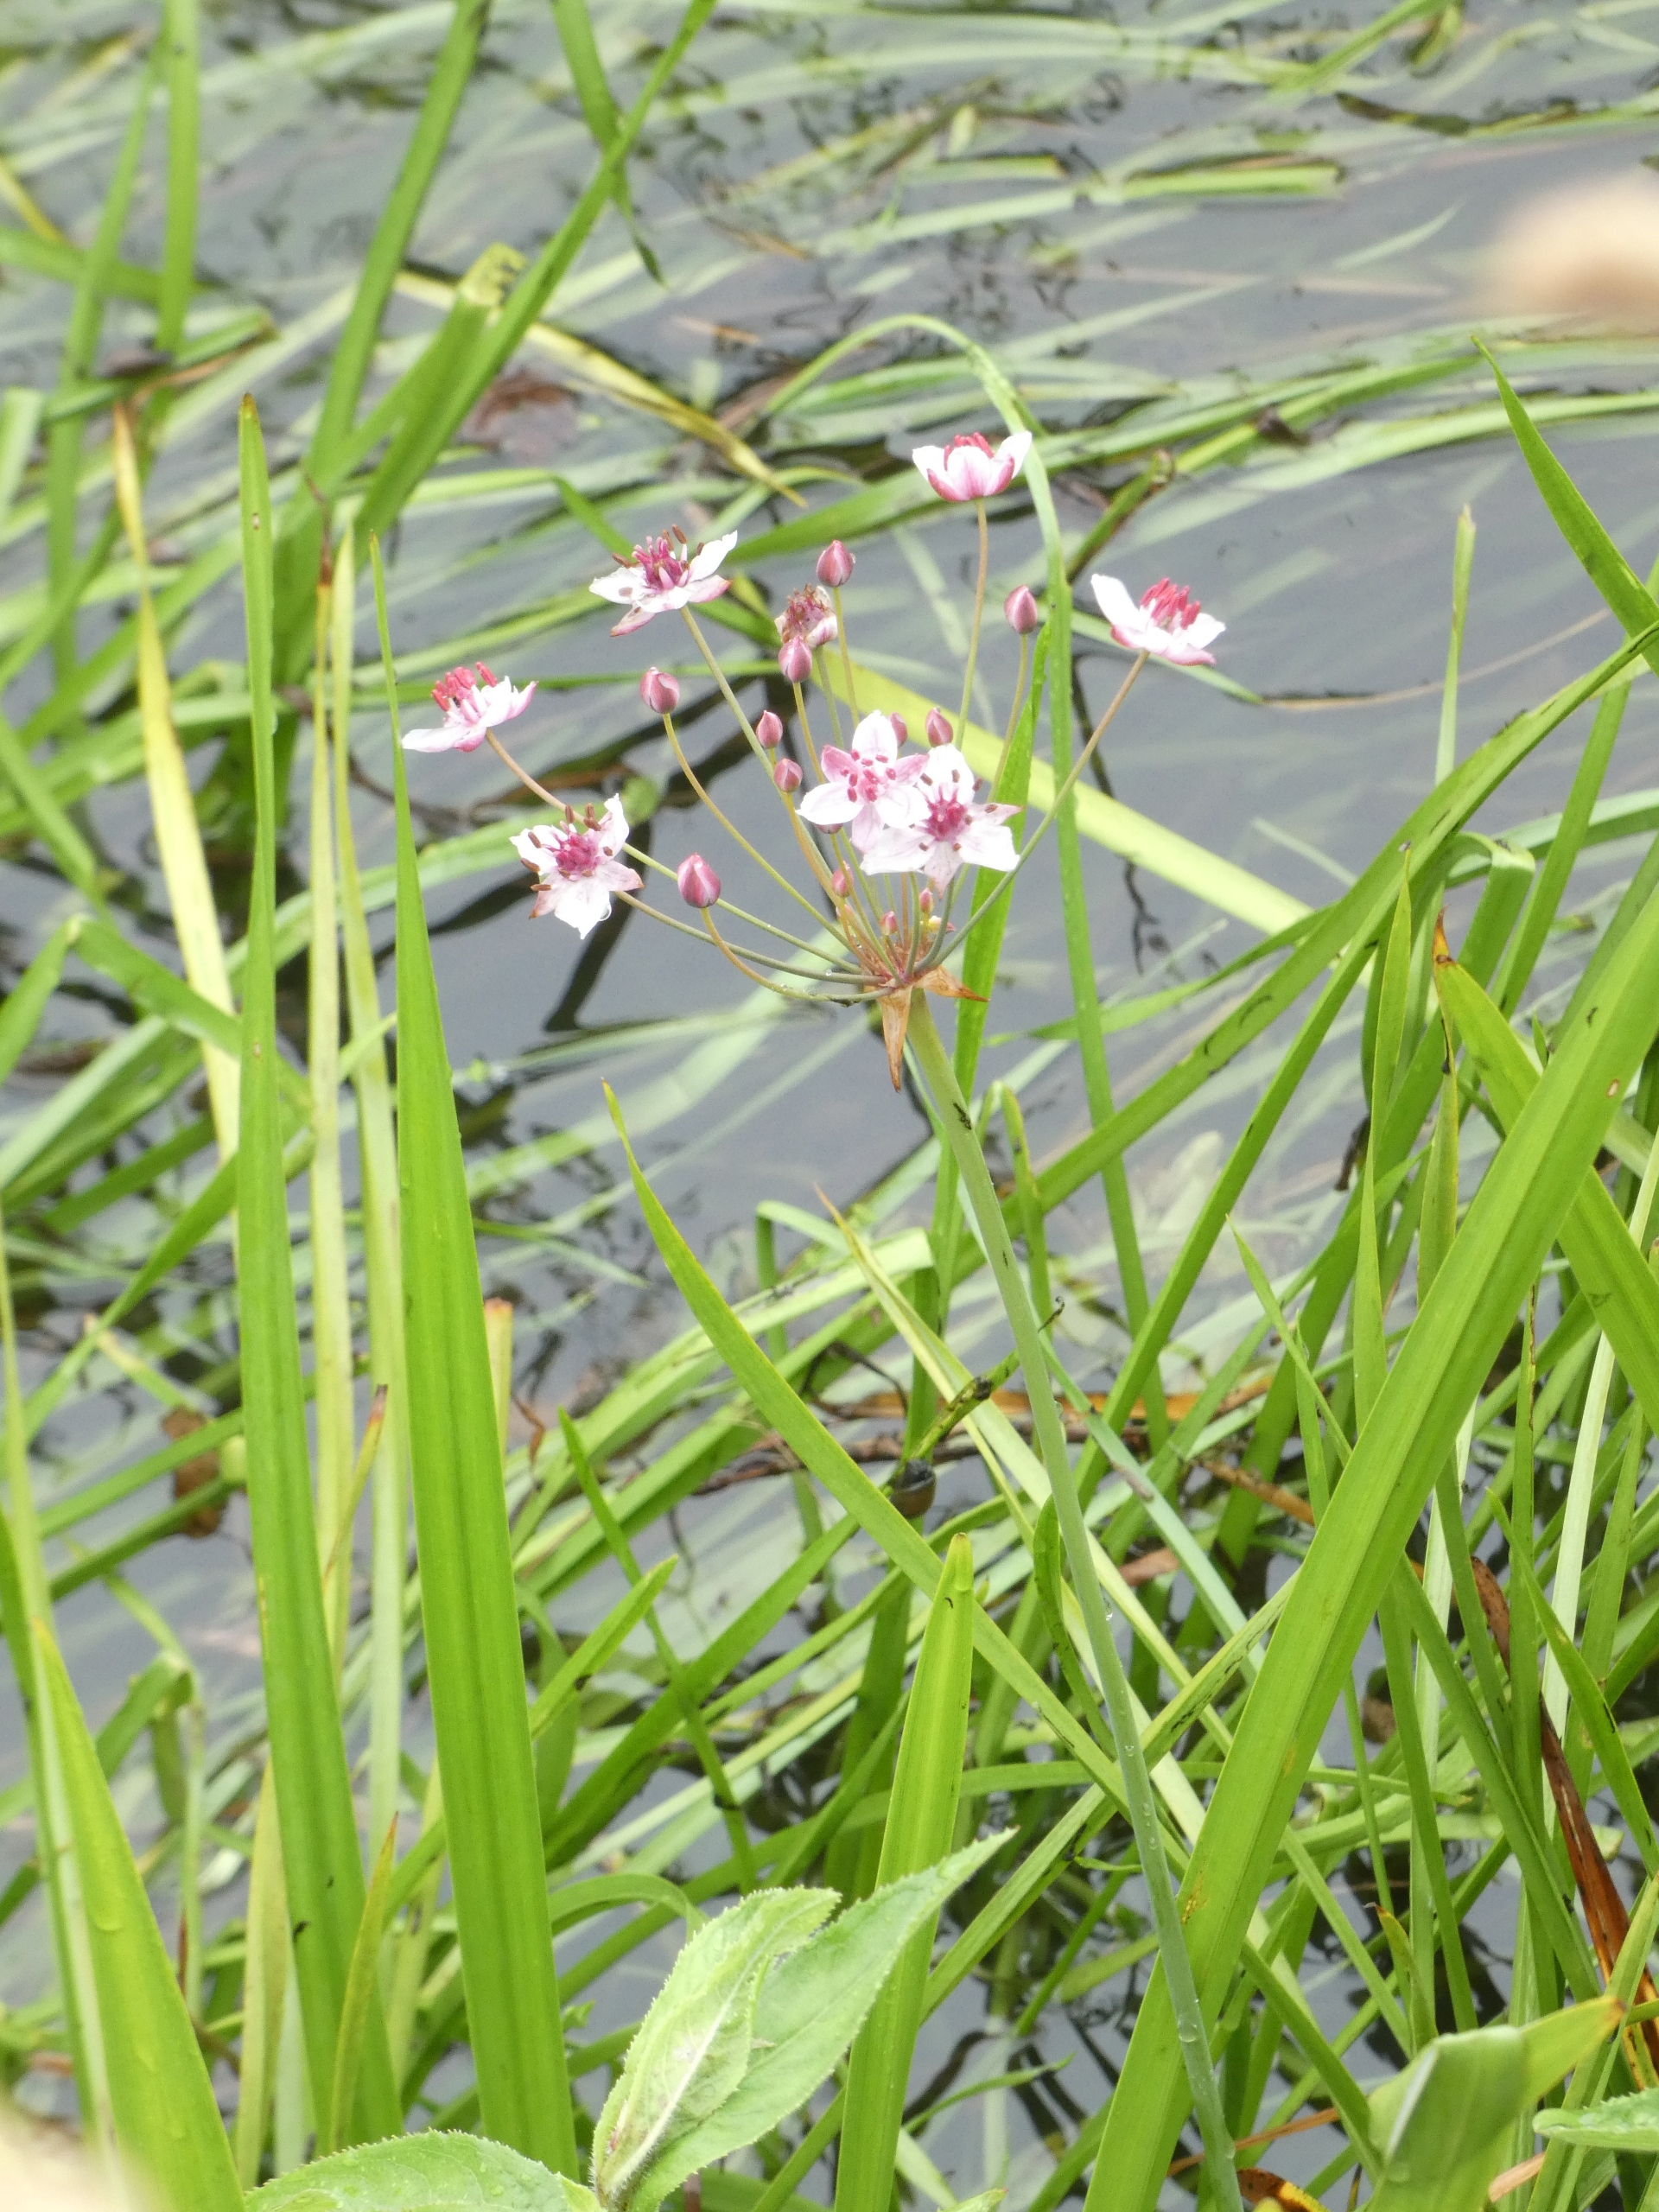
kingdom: Plantae
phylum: Tracheophyta
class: Liliopsida
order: Alismatales
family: Butomaceae
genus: Butomus
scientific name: Butomus umbellatus
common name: Brudelys
